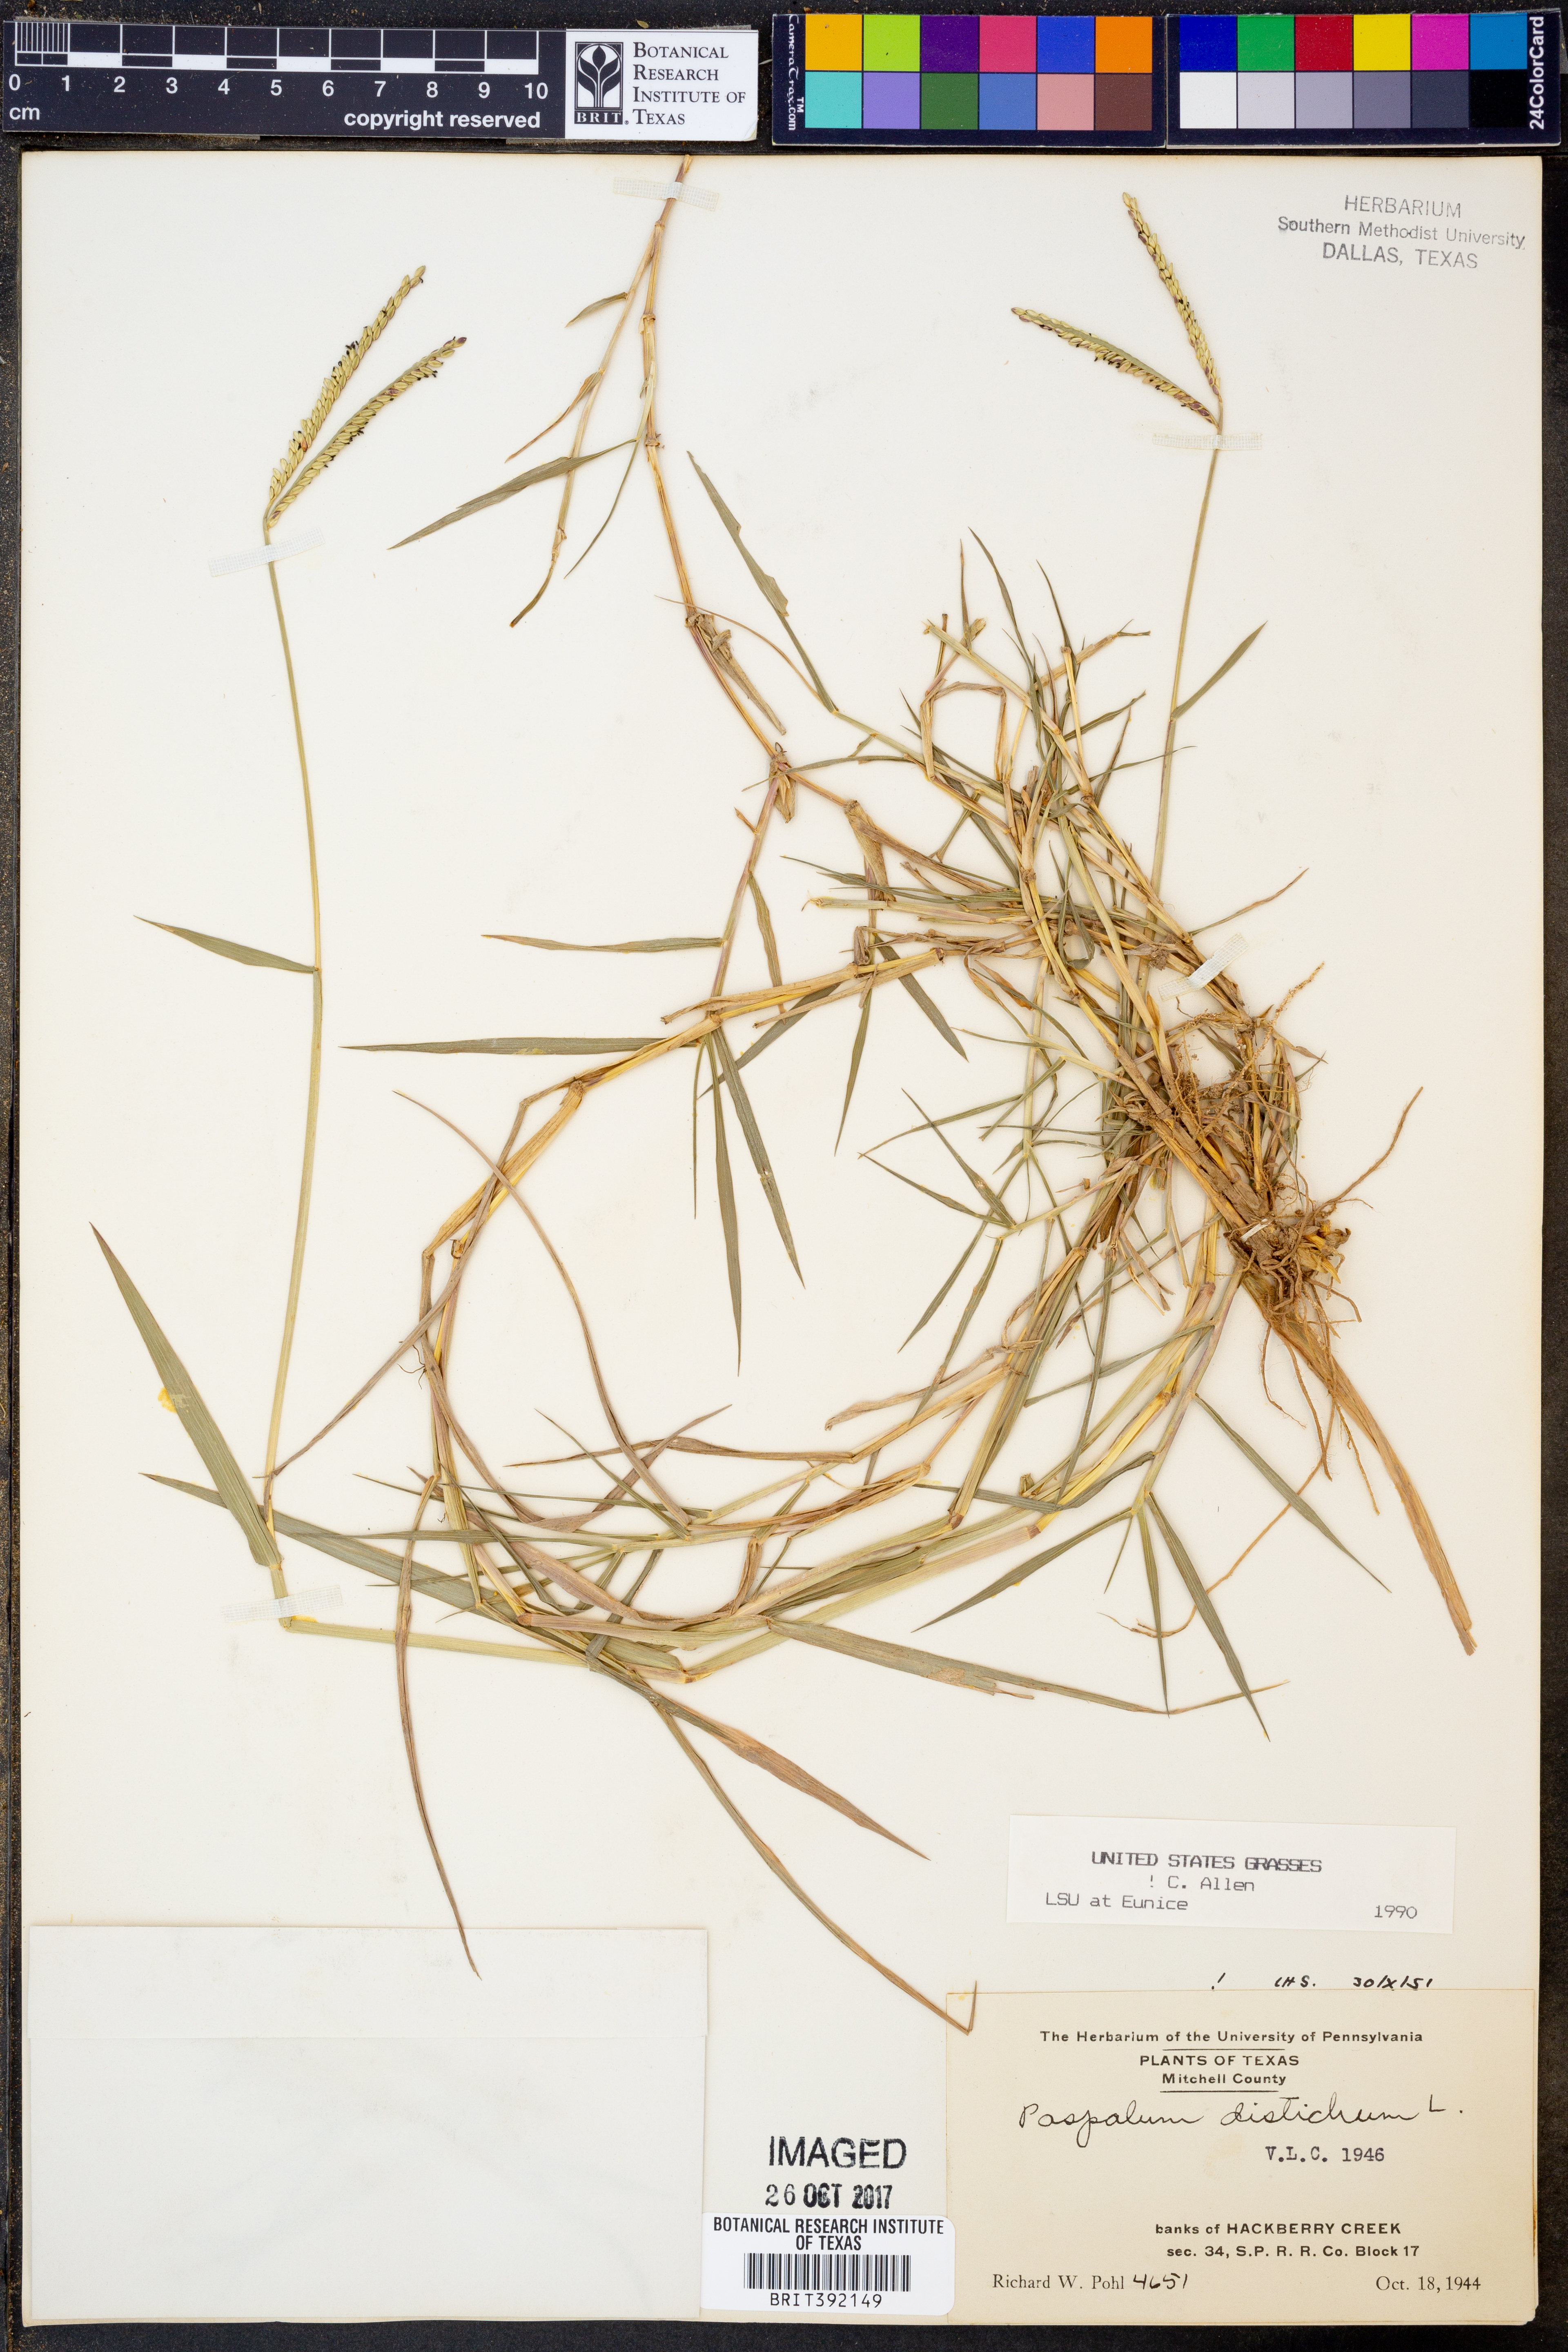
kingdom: Plantae
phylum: Tracheophyta
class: Liliopsida
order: Poales
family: Poaceae
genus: Paspalum
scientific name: Paspalum distichum
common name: Knotgrass
